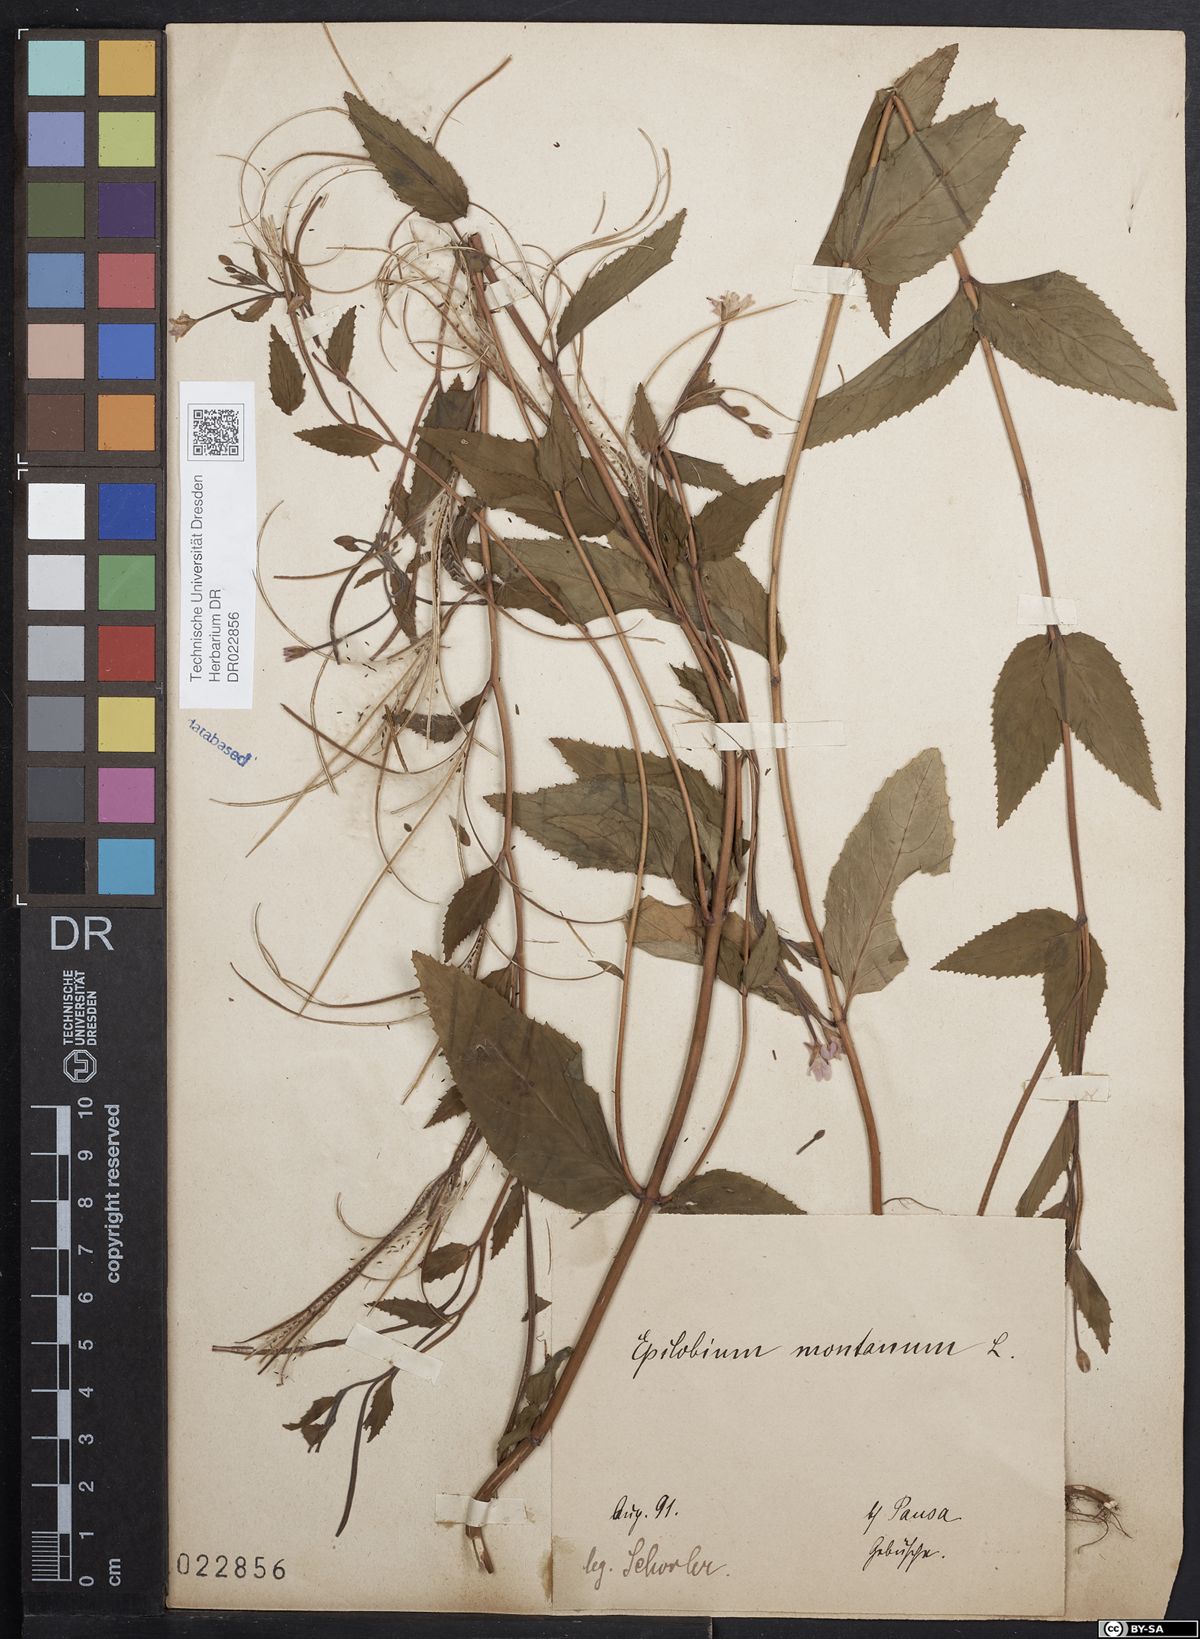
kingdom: Plantae
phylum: Tracheophyta
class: Magnoliopsida
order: Myrtales
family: Onagraceae
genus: Epilobium
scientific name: Epilobium montanum
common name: Broad-leaved willowherb
